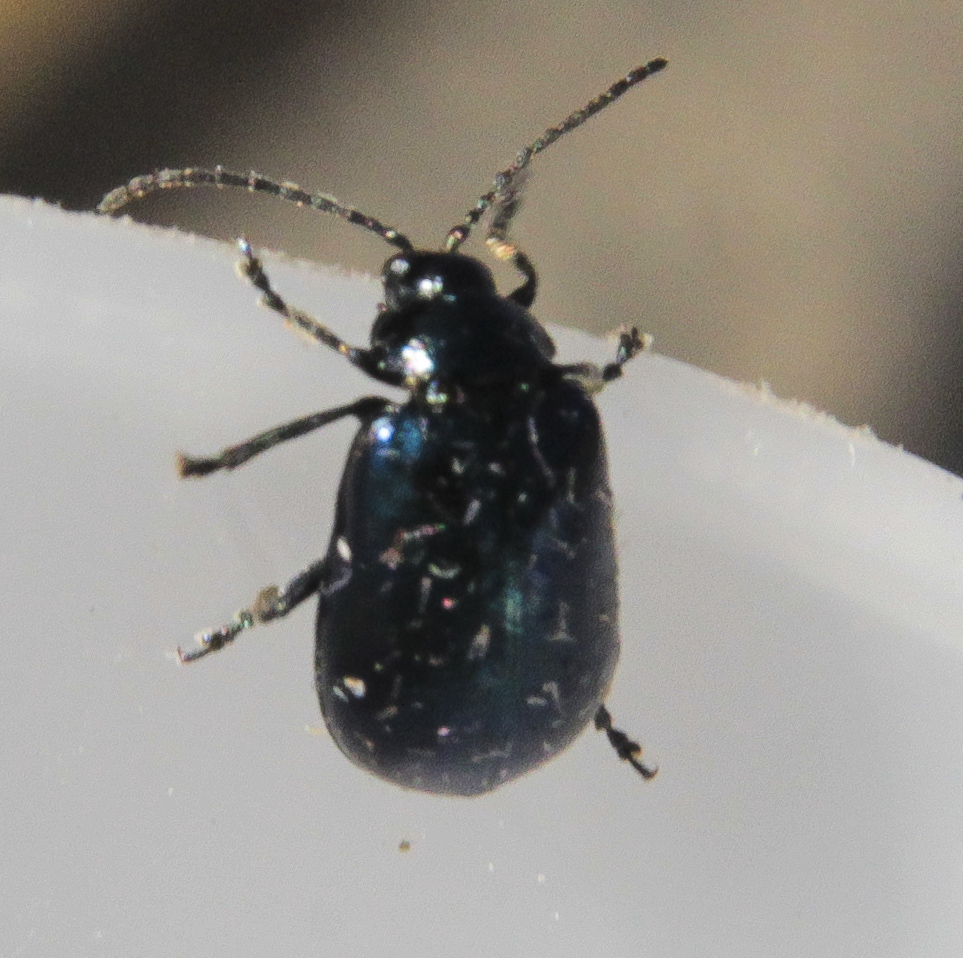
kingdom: Animalia
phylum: Arthropoda
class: Insecta
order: Coleoptera
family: Chrysomelidae
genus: Agelastica
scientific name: Agelastica alni
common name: Alder leaf beetle
